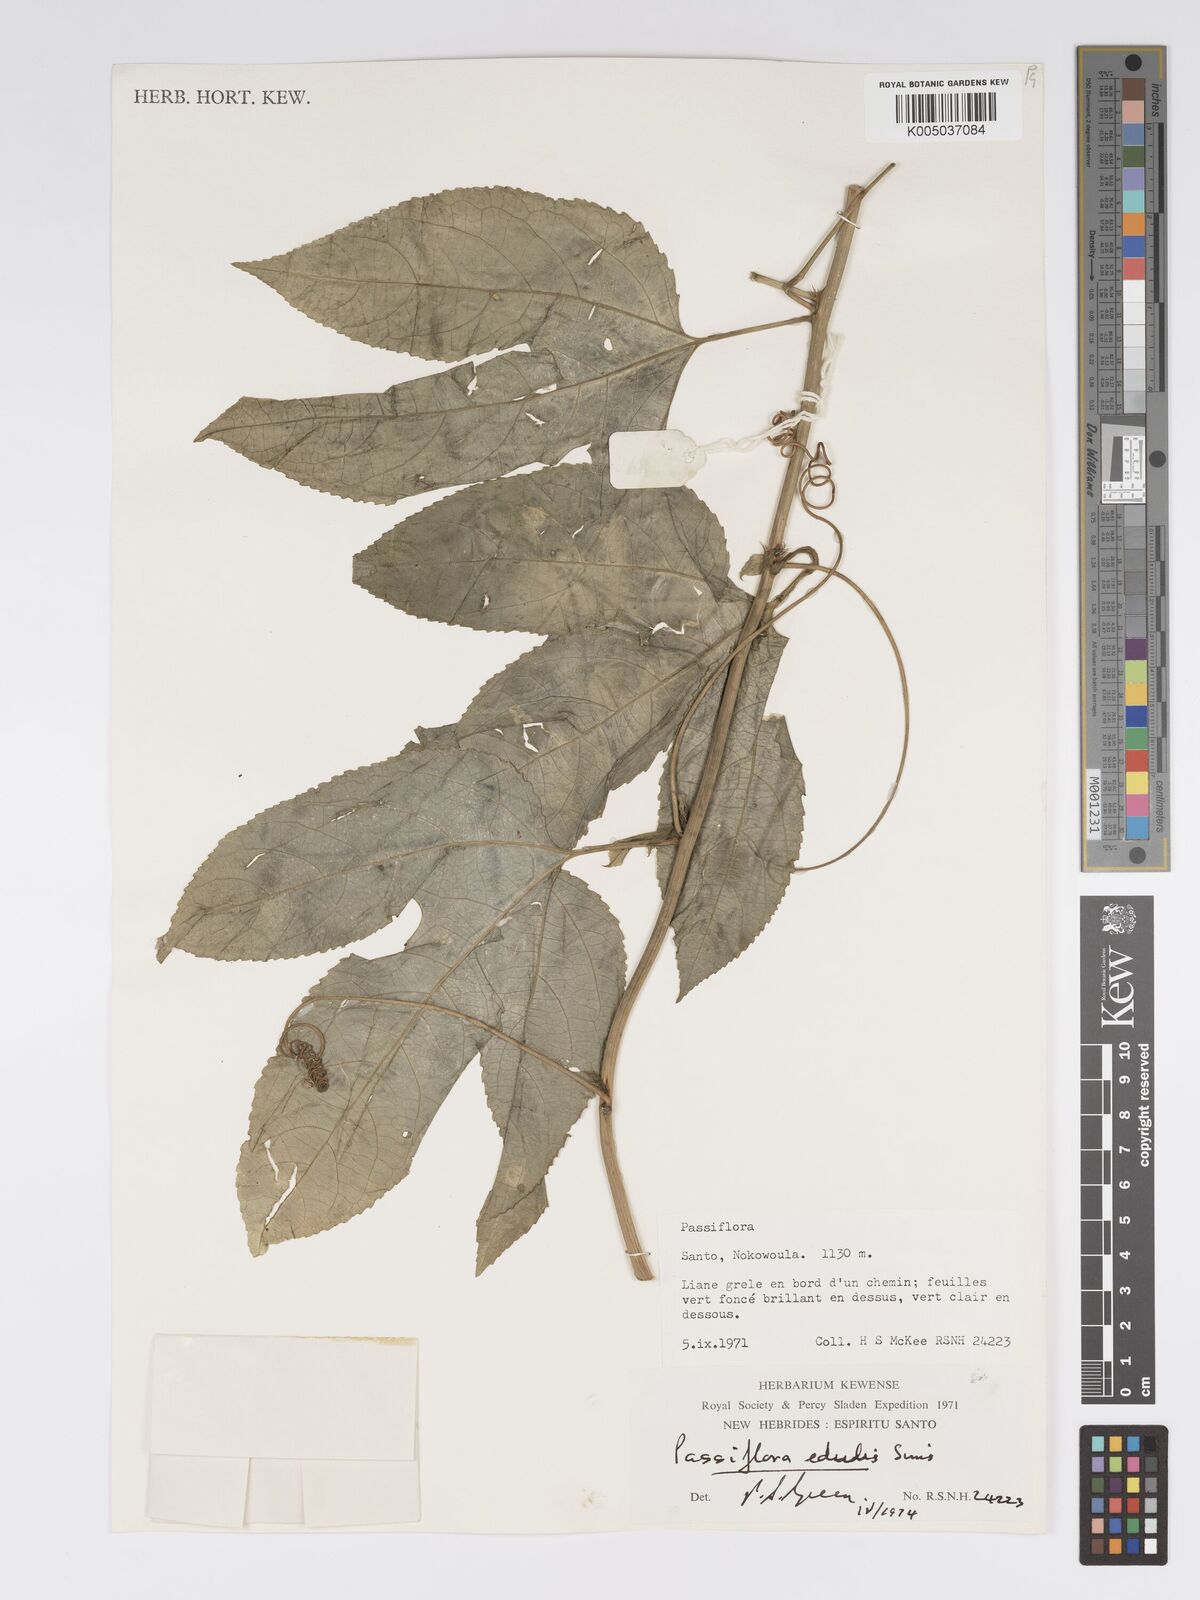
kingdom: Plantae
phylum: Tracheophyta
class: Magnoliopsida
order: Malpighiales
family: Passifloraceae
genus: Passiflora
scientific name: Passiflora edulis
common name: Purple granadilla
